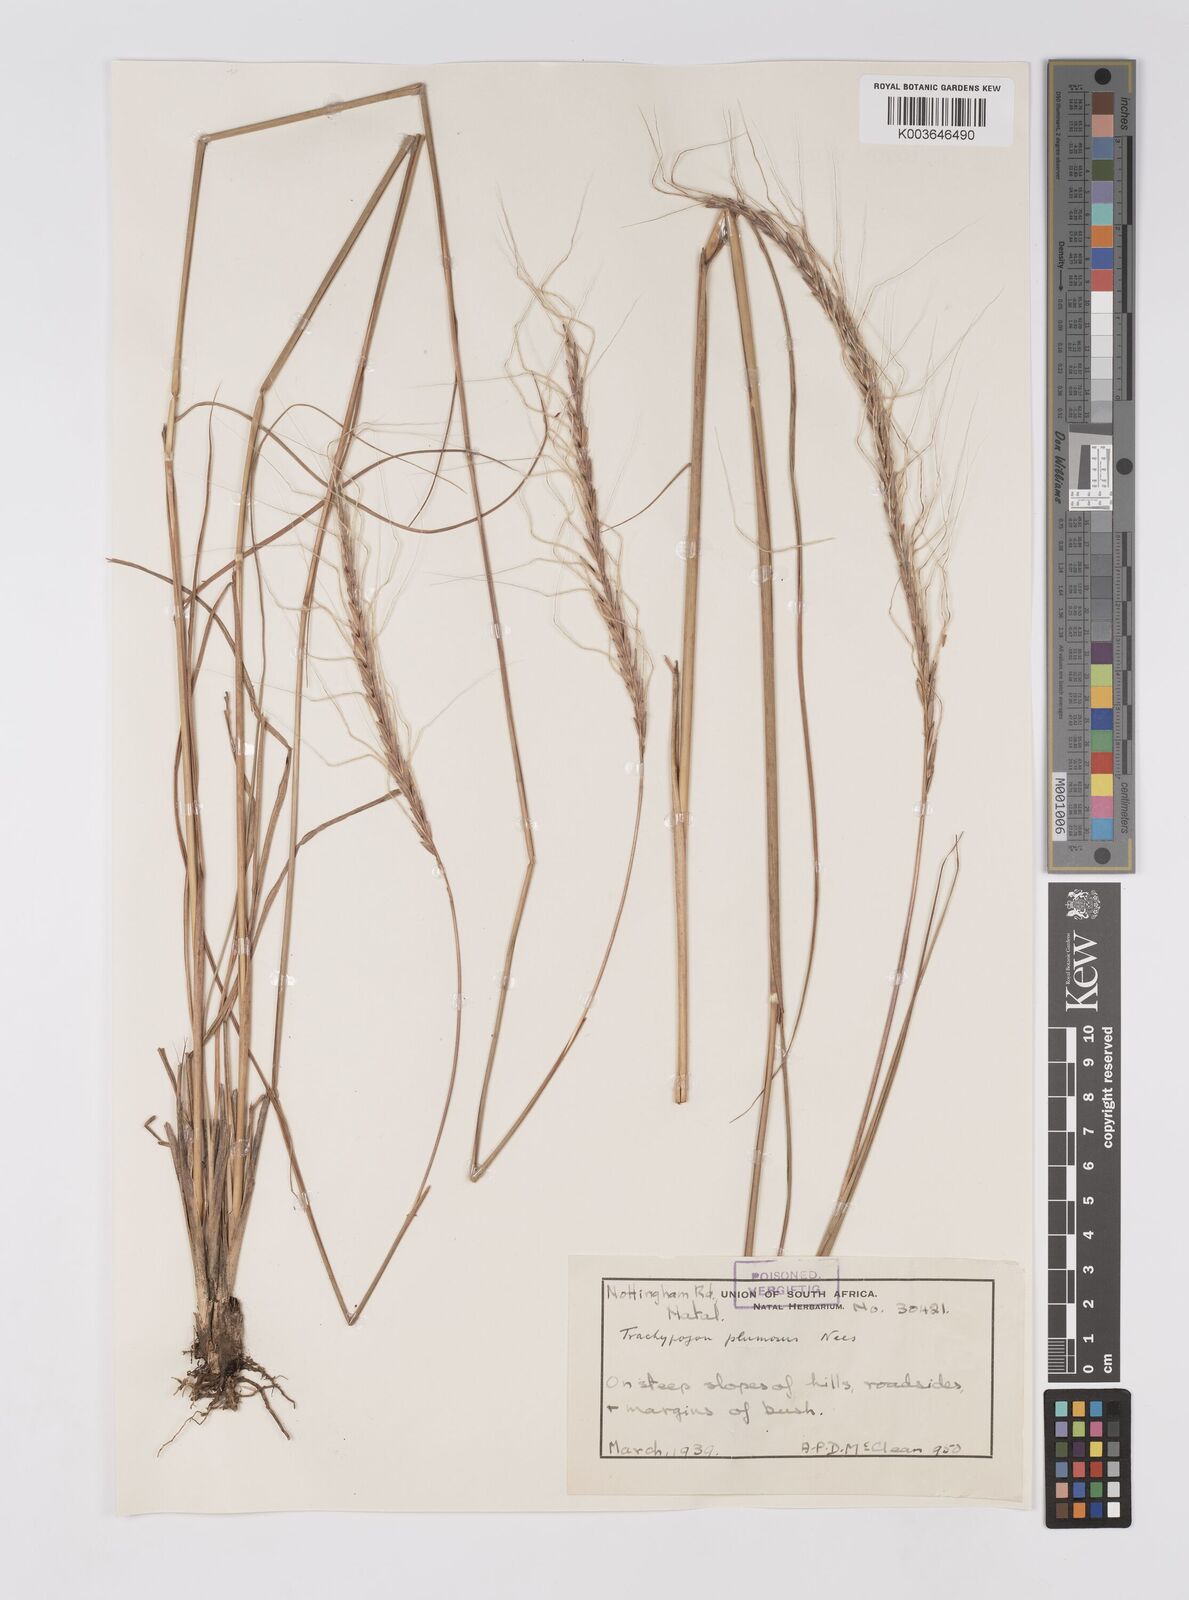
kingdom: Plantae
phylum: Tracheophyta
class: Liliopsida
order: Poales
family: Poaceae
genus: Trachypogon
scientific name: Trachypogon spicatus
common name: Crinkle-awn
